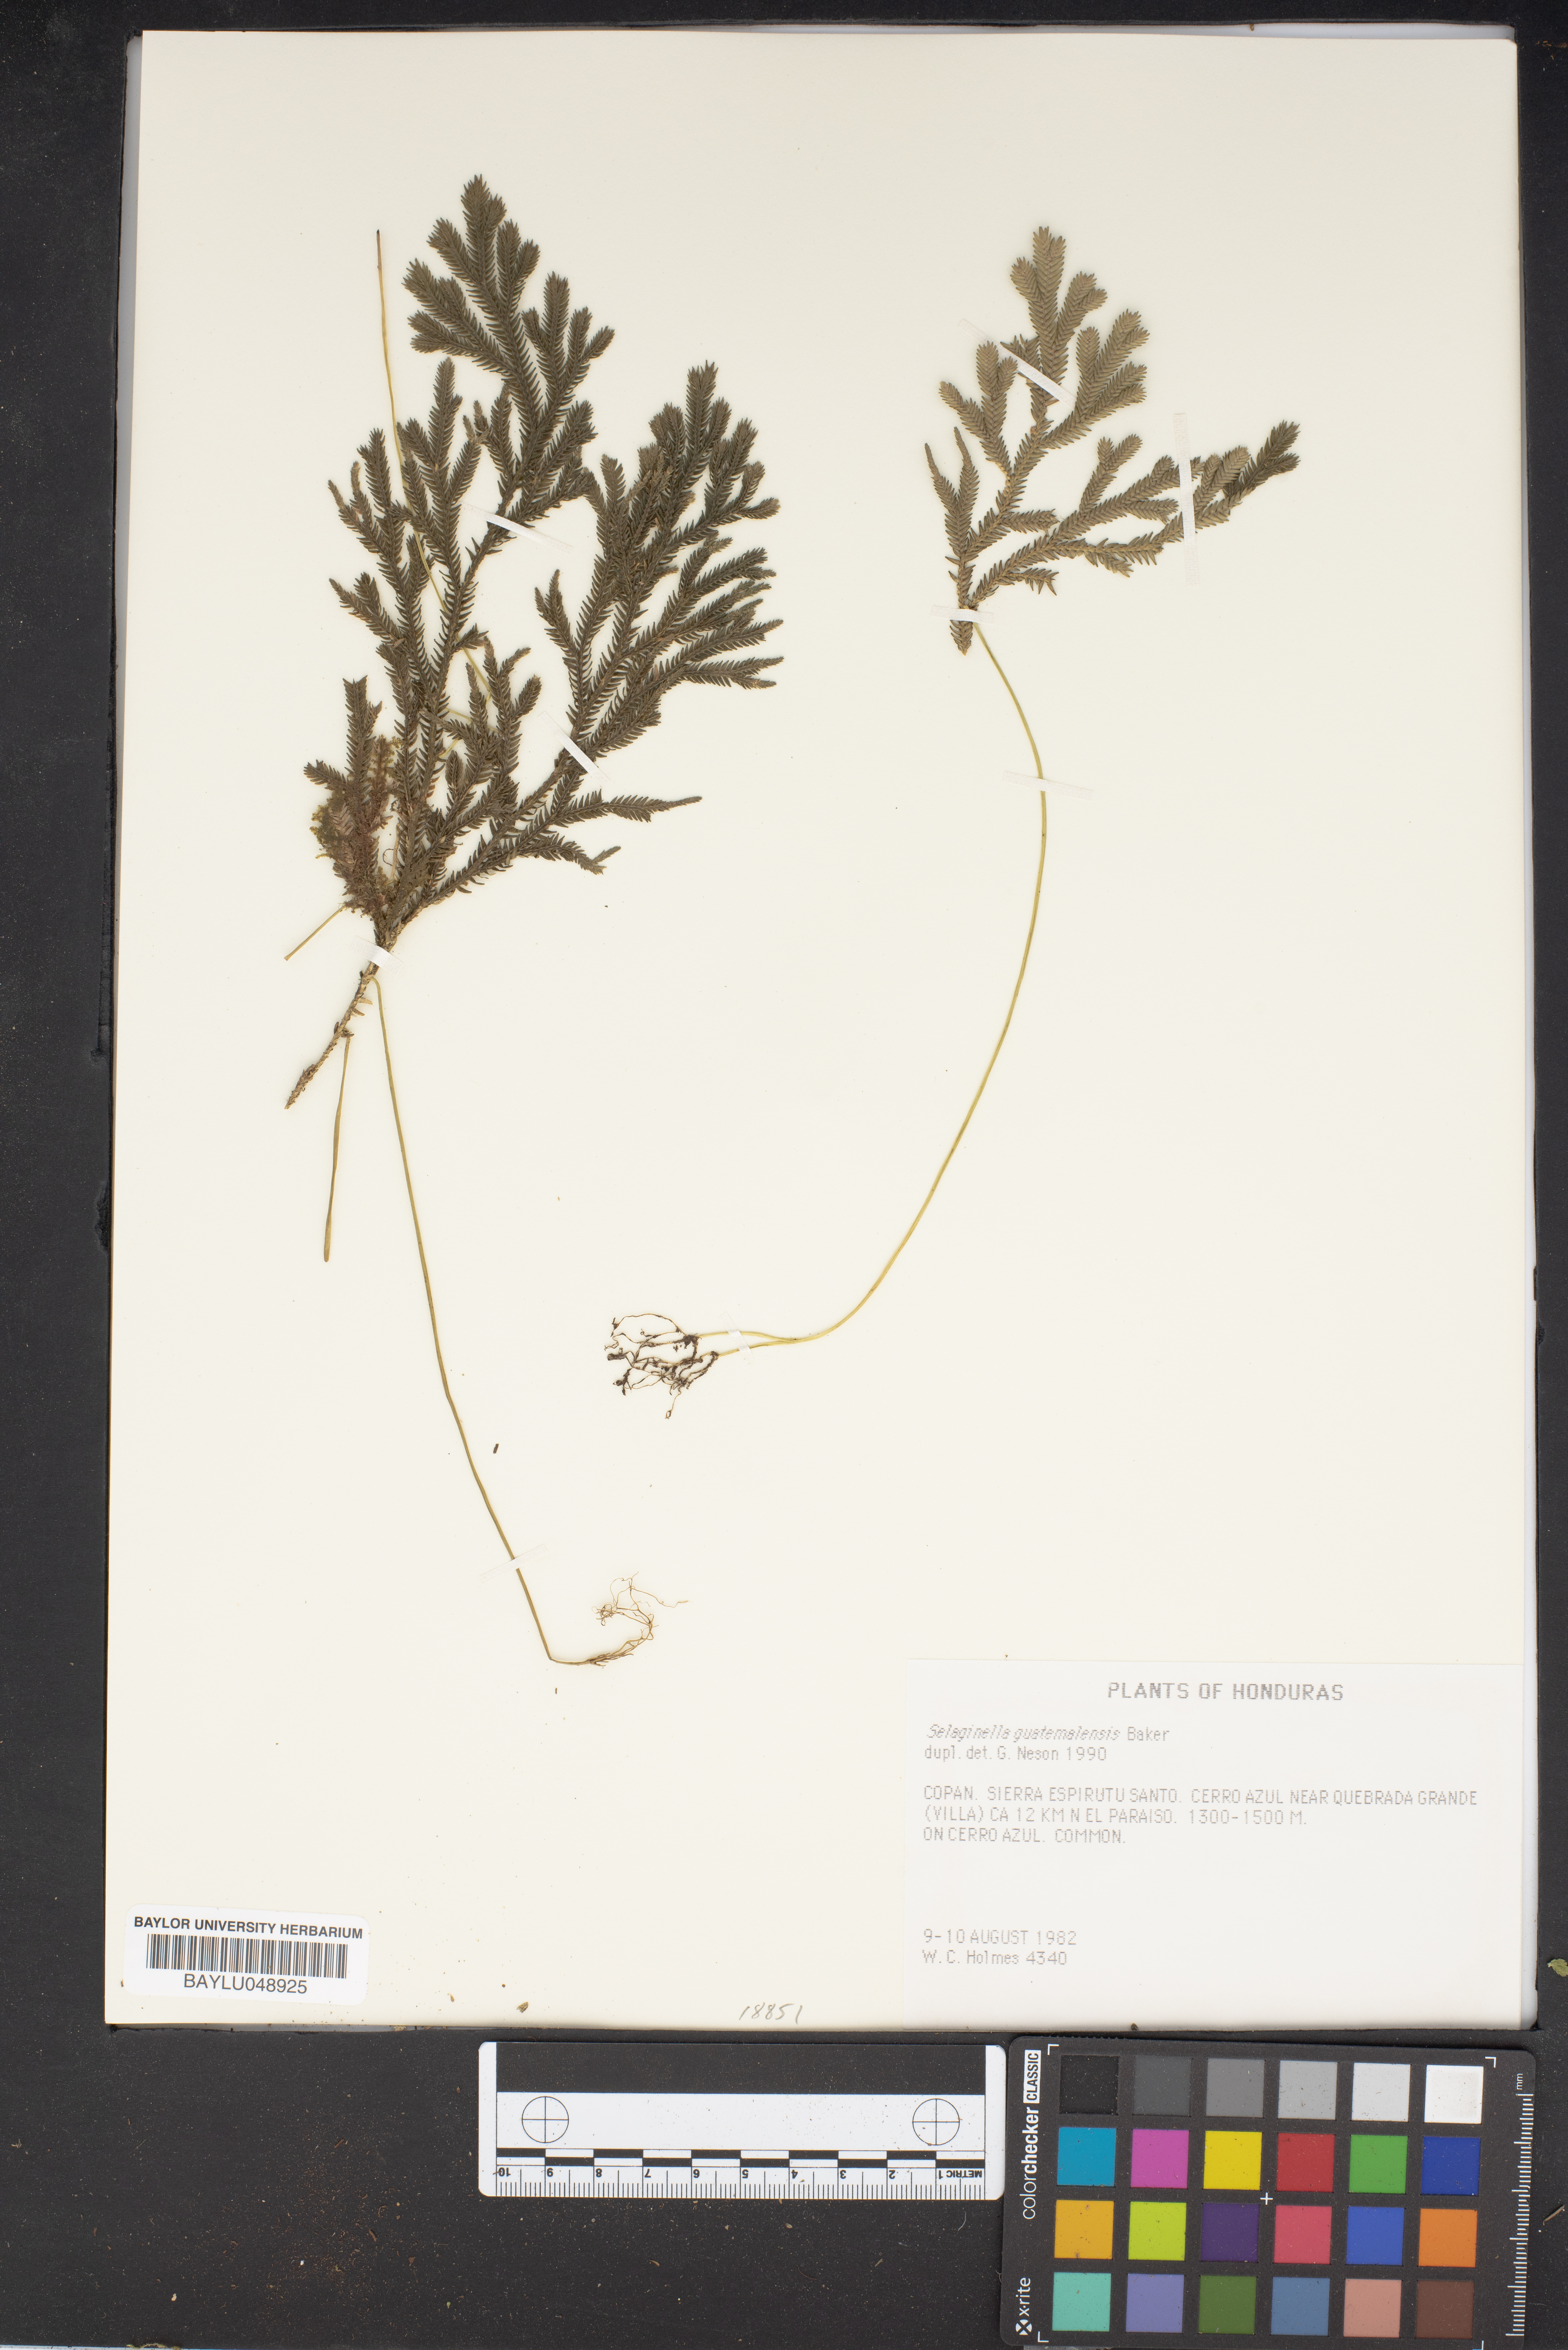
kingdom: Plantae
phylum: Tracheophyta
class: Lycopodiopsida
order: Selaginellales
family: Selaginellaceae
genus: Selaginella
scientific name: Selaginella guatemalensis
